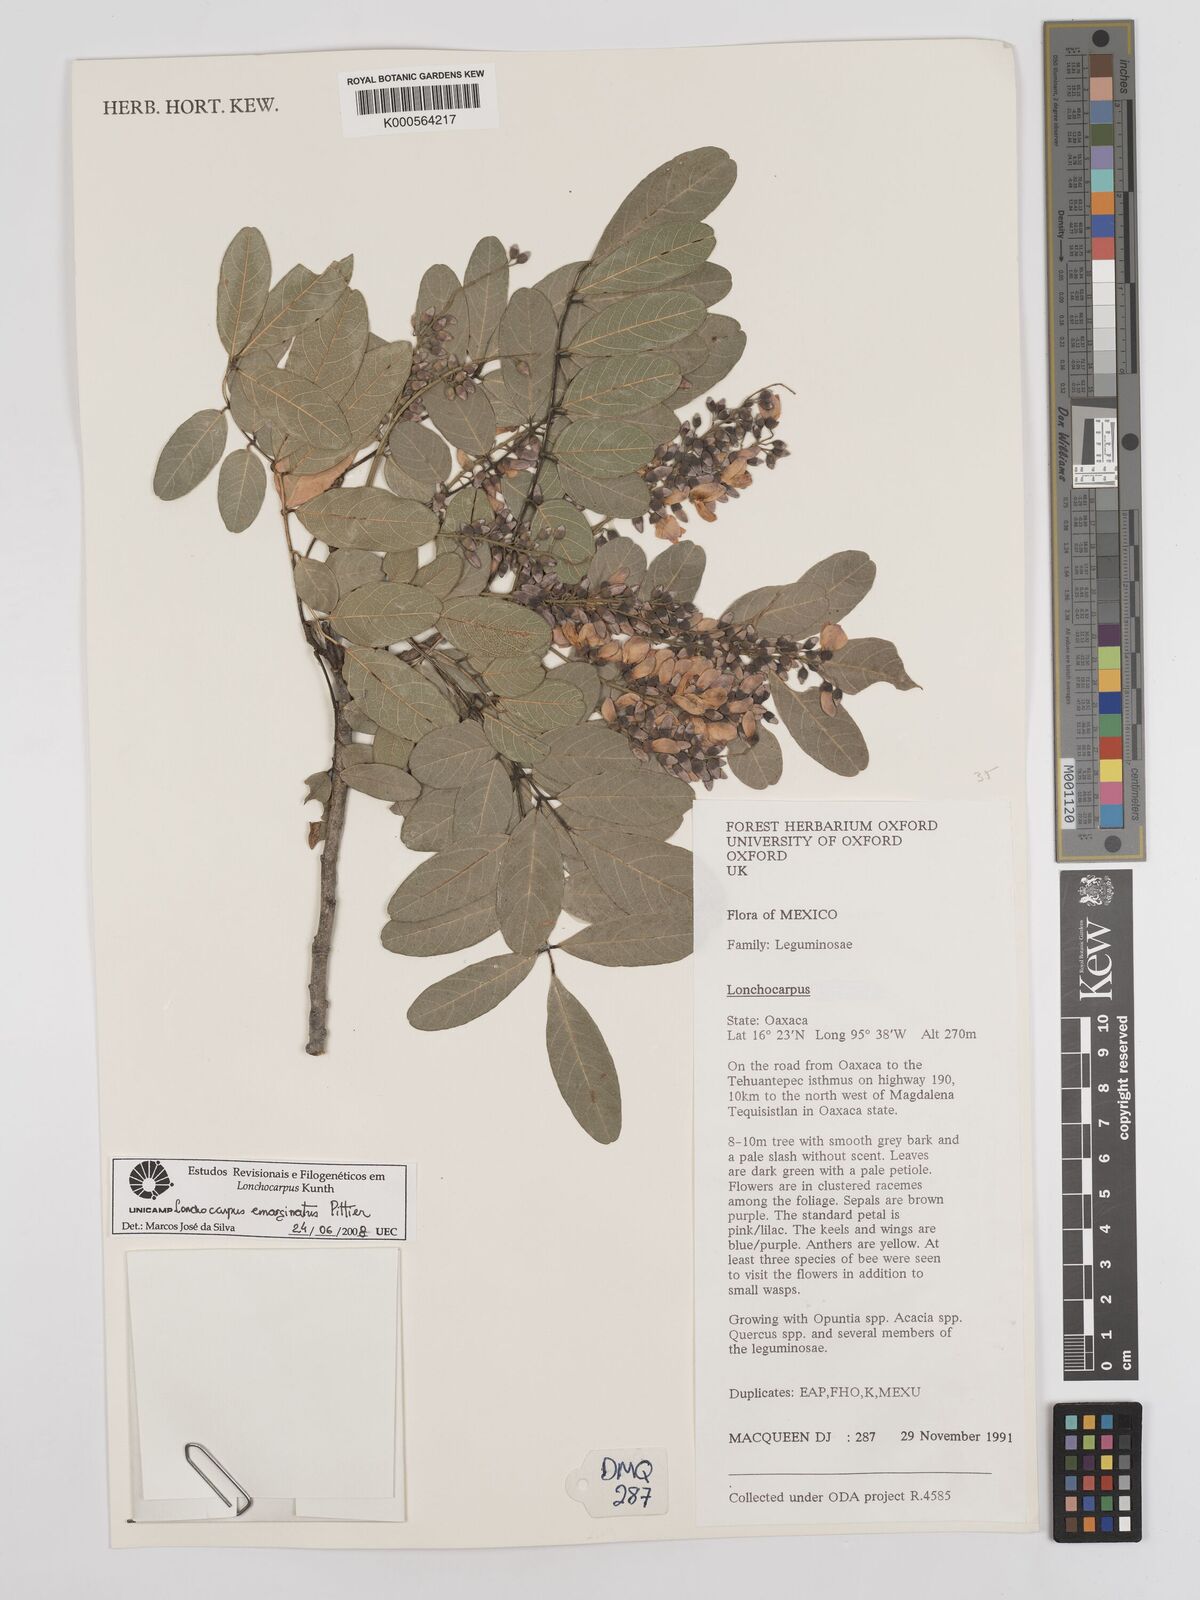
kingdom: Plantae
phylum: Tracheophyta
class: Magnoliopsida
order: Fabales
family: Fabaceae
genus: Lonchocarpus
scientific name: Lonchocarpus emarginatus
